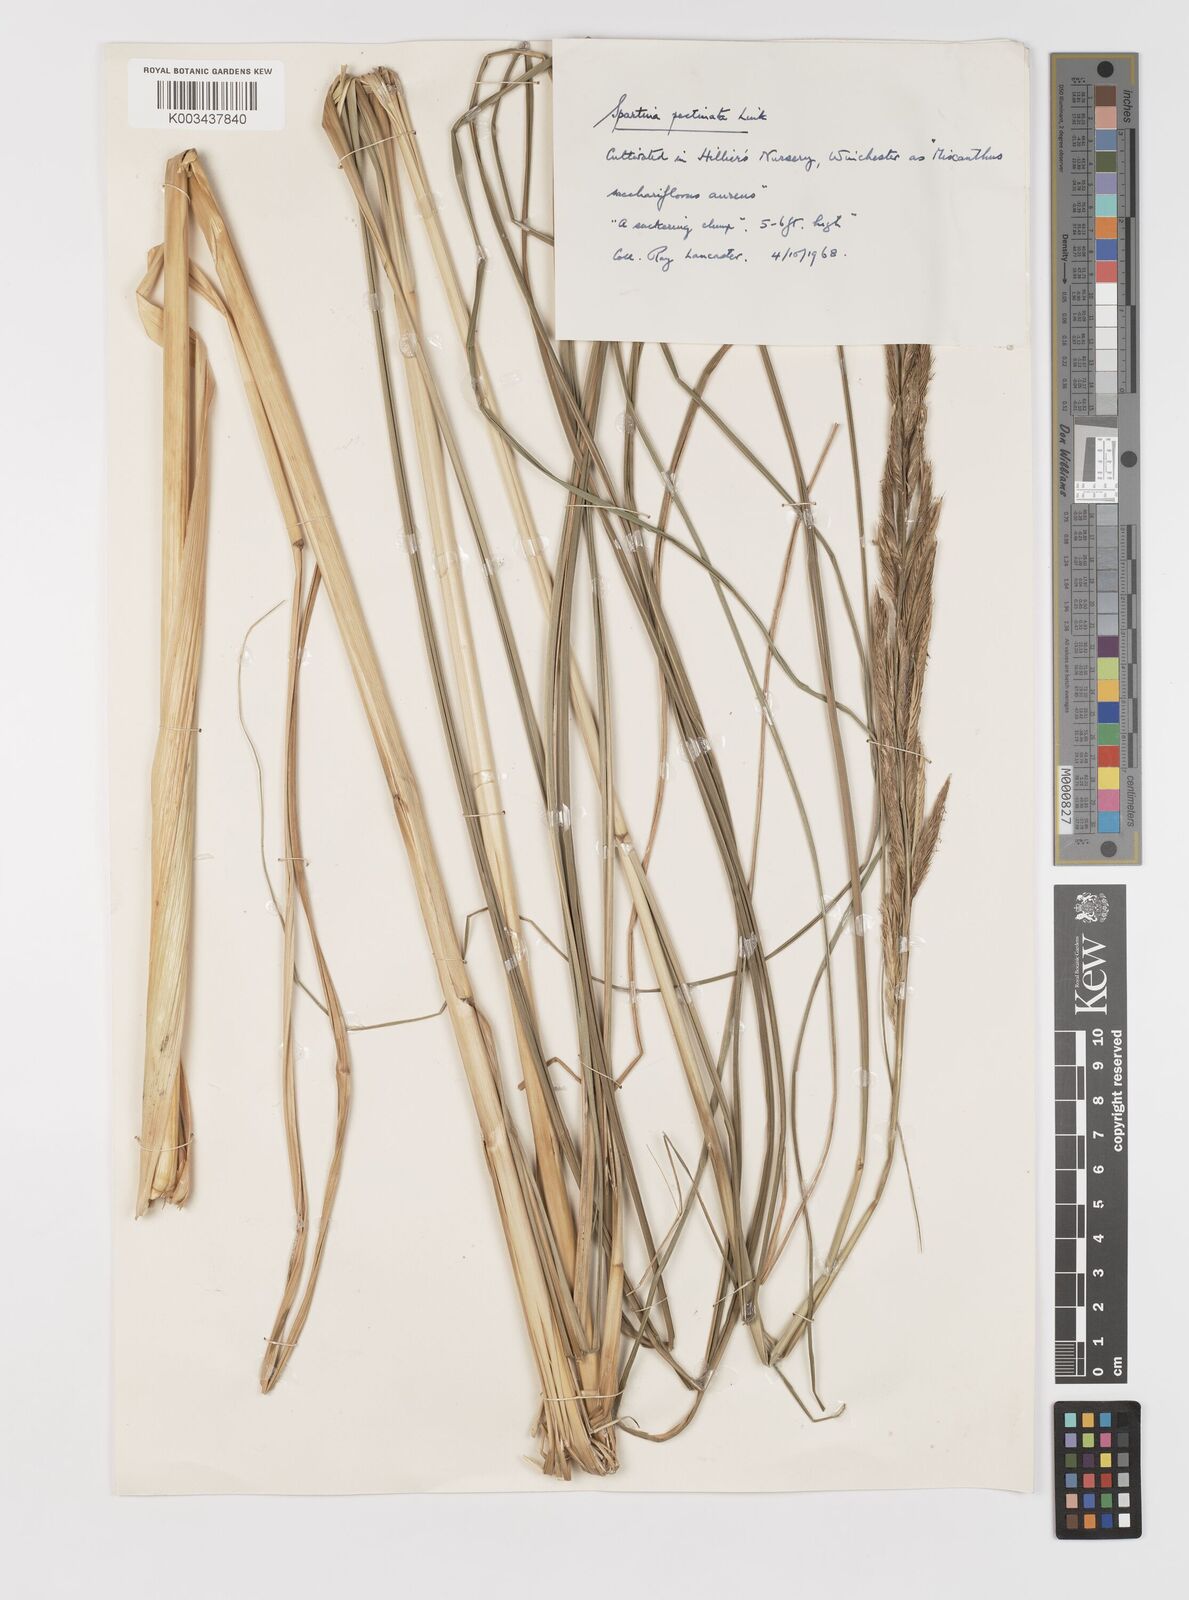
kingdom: Plantae
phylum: Tracheophyta
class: Liliopsida
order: Poales
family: Poaceae
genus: Sporobolus
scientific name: Sporobolus michauxianus
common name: Freshwater cordgrass
